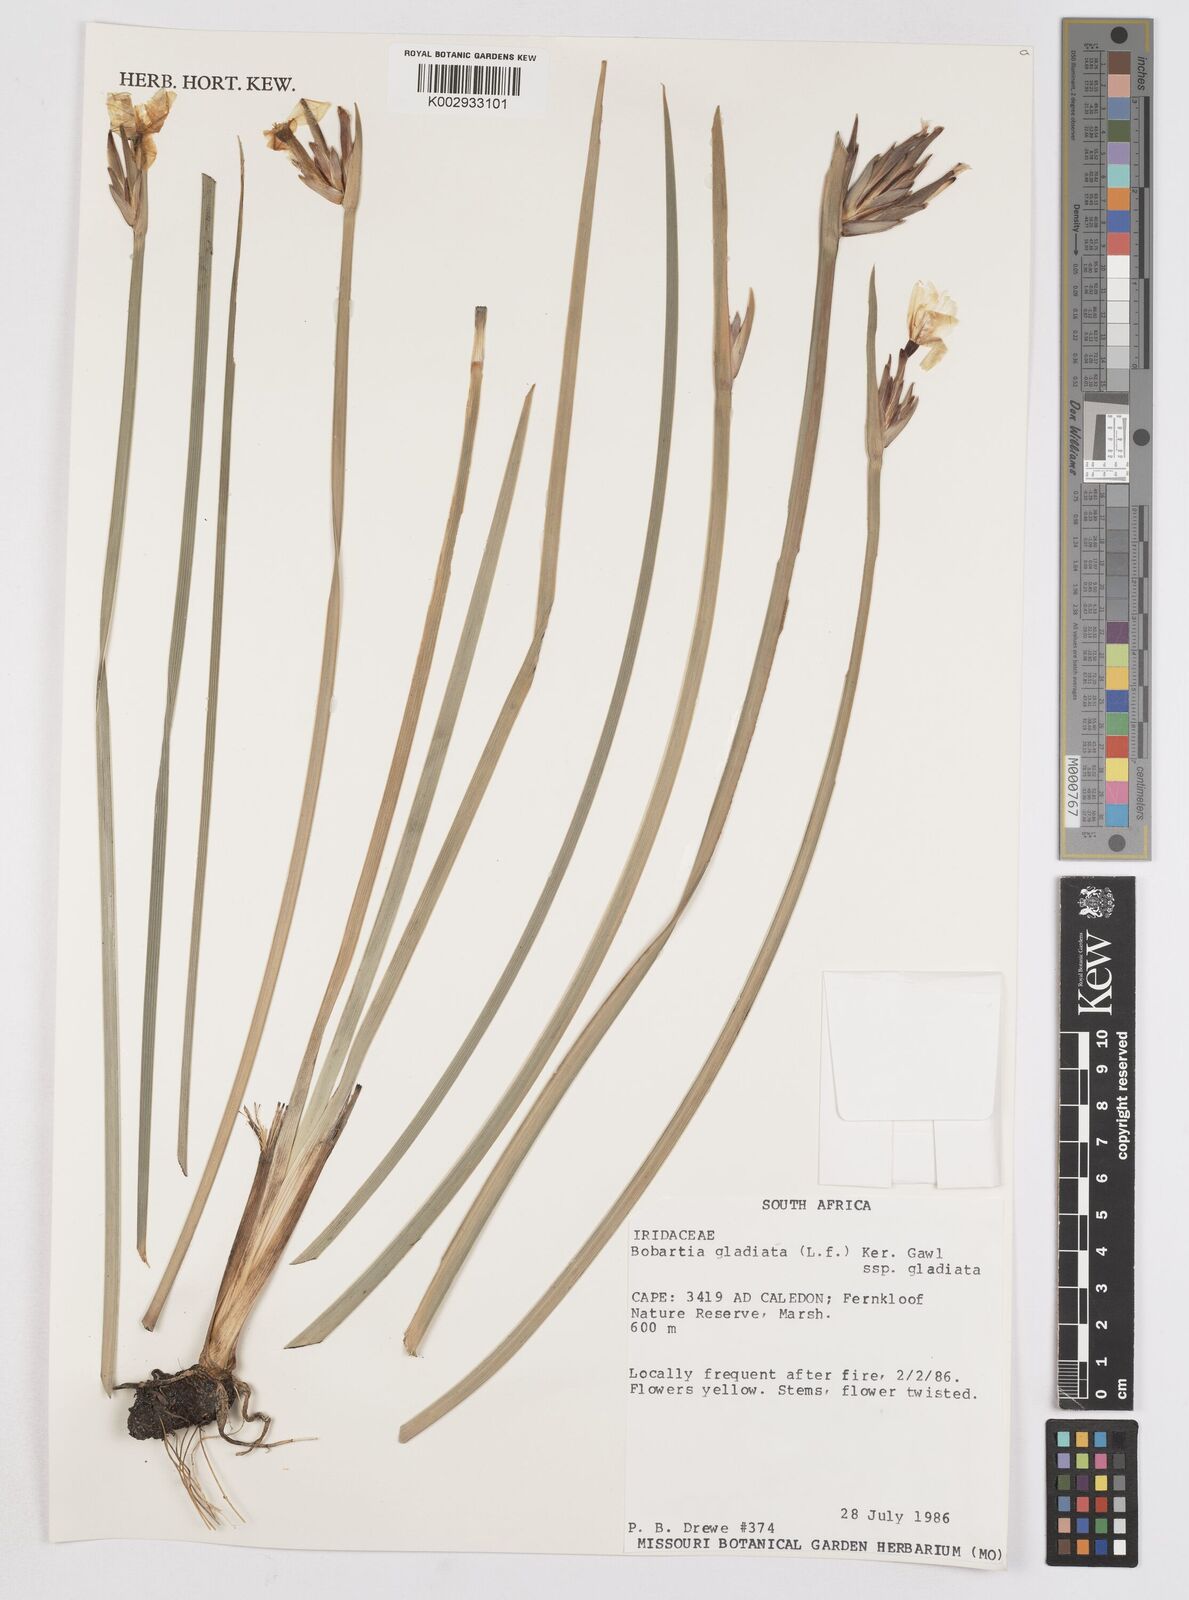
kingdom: Plantae
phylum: Tracheophyta
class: Liliopsida
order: Asparagales
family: Iridaceae
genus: Bobartia
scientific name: Bobartia gladiata
